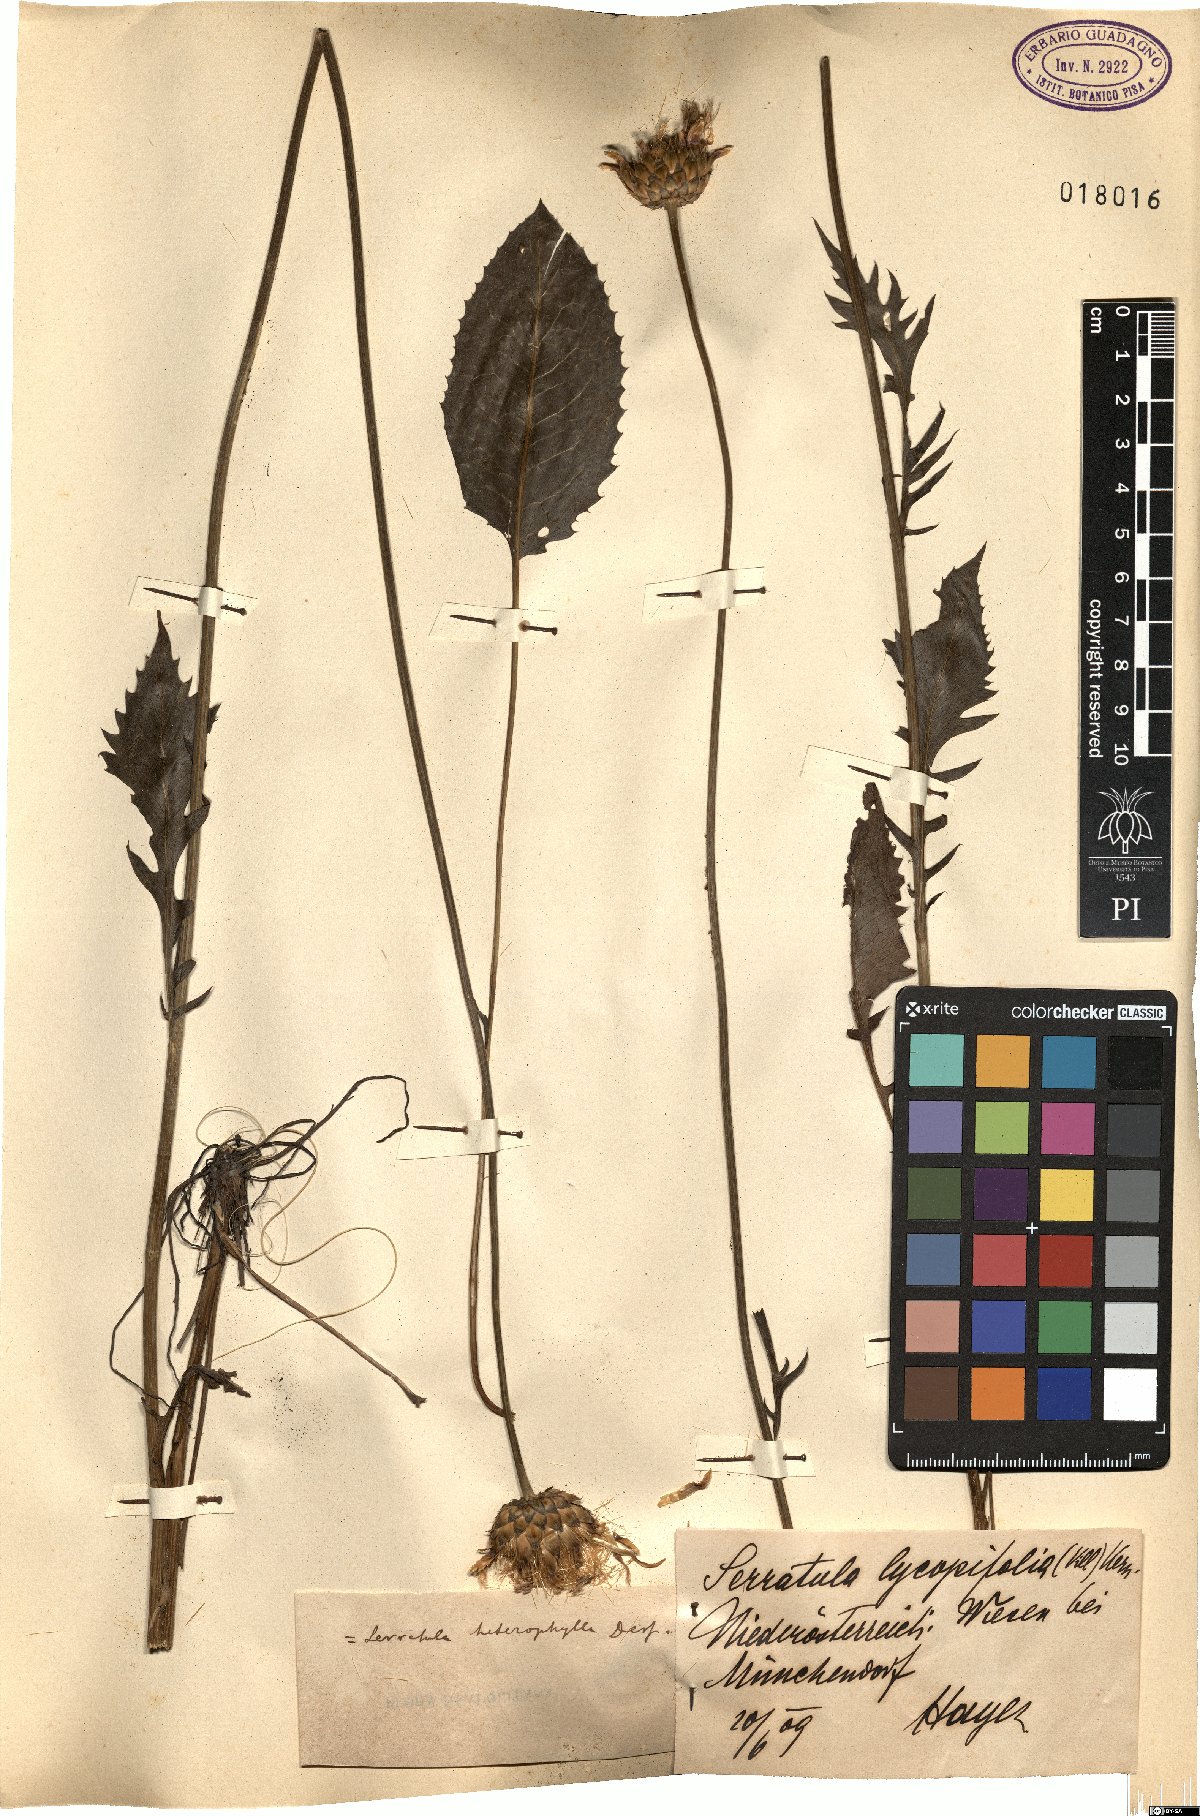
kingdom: Plantae
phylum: Tracheophyta
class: Magnoliopsida
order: Asterales
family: Asteraceae
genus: Serratula
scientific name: Serratula heterophilla
